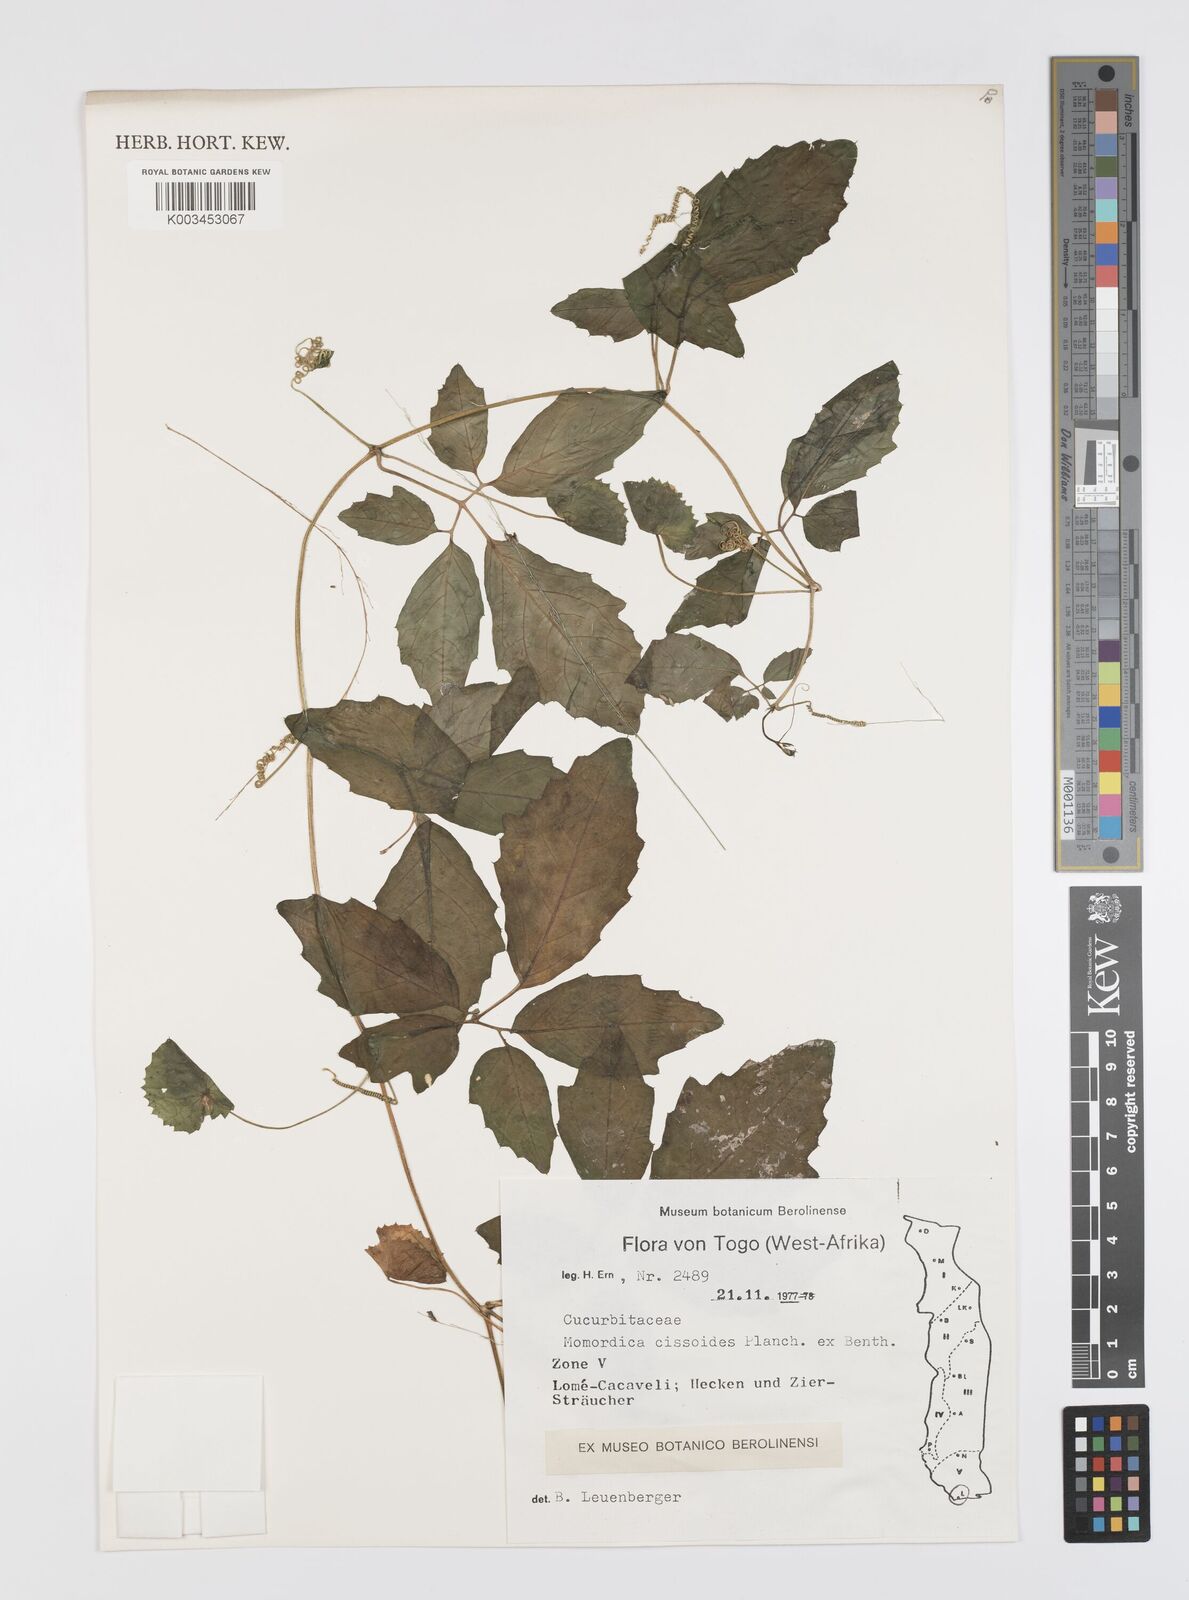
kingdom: Plantae
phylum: Tracheophyta
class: Magnoliopsida
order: Cucurbitales
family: Cucurbitaceae
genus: Momordica
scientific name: Momordica cissoides
